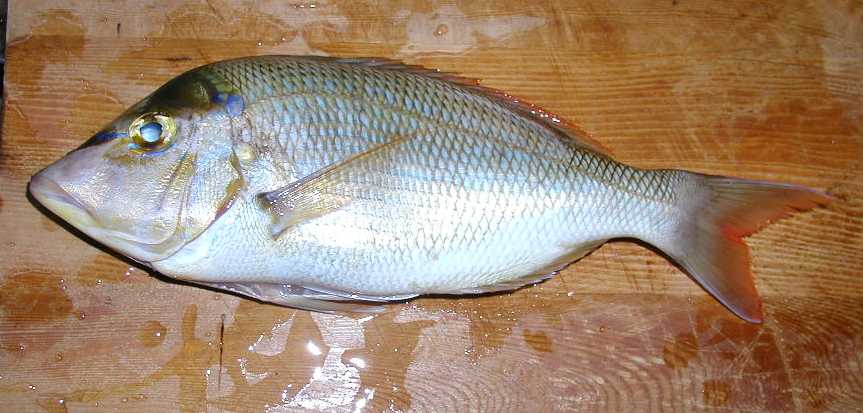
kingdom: Animalia
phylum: Chordata
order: Perciformes
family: Lethrinidae
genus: Lethrinus
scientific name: Lethrinus nebulosus
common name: Spangled emperor
